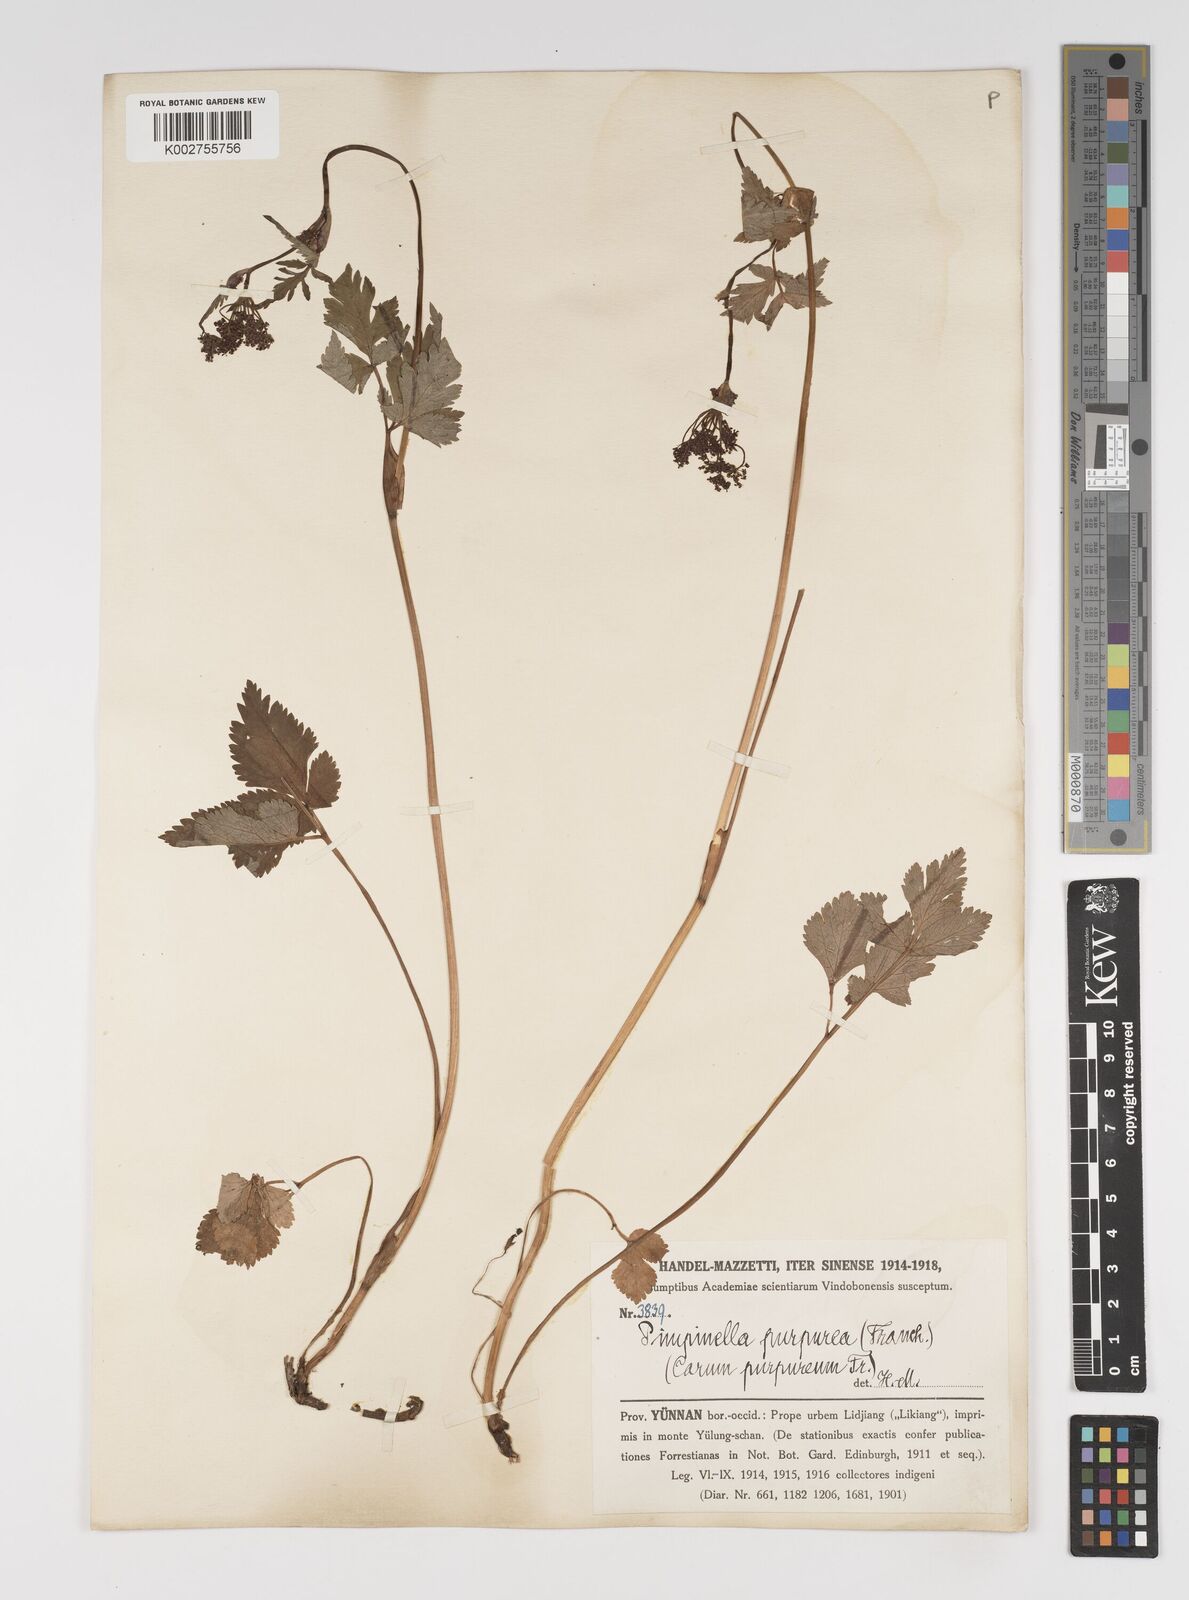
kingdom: Plantae
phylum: Tracheophyta
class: Magnoliopsida
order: Apiales
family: Apiaceae
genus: Pimpinella
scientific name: Pimpinella purpurea
